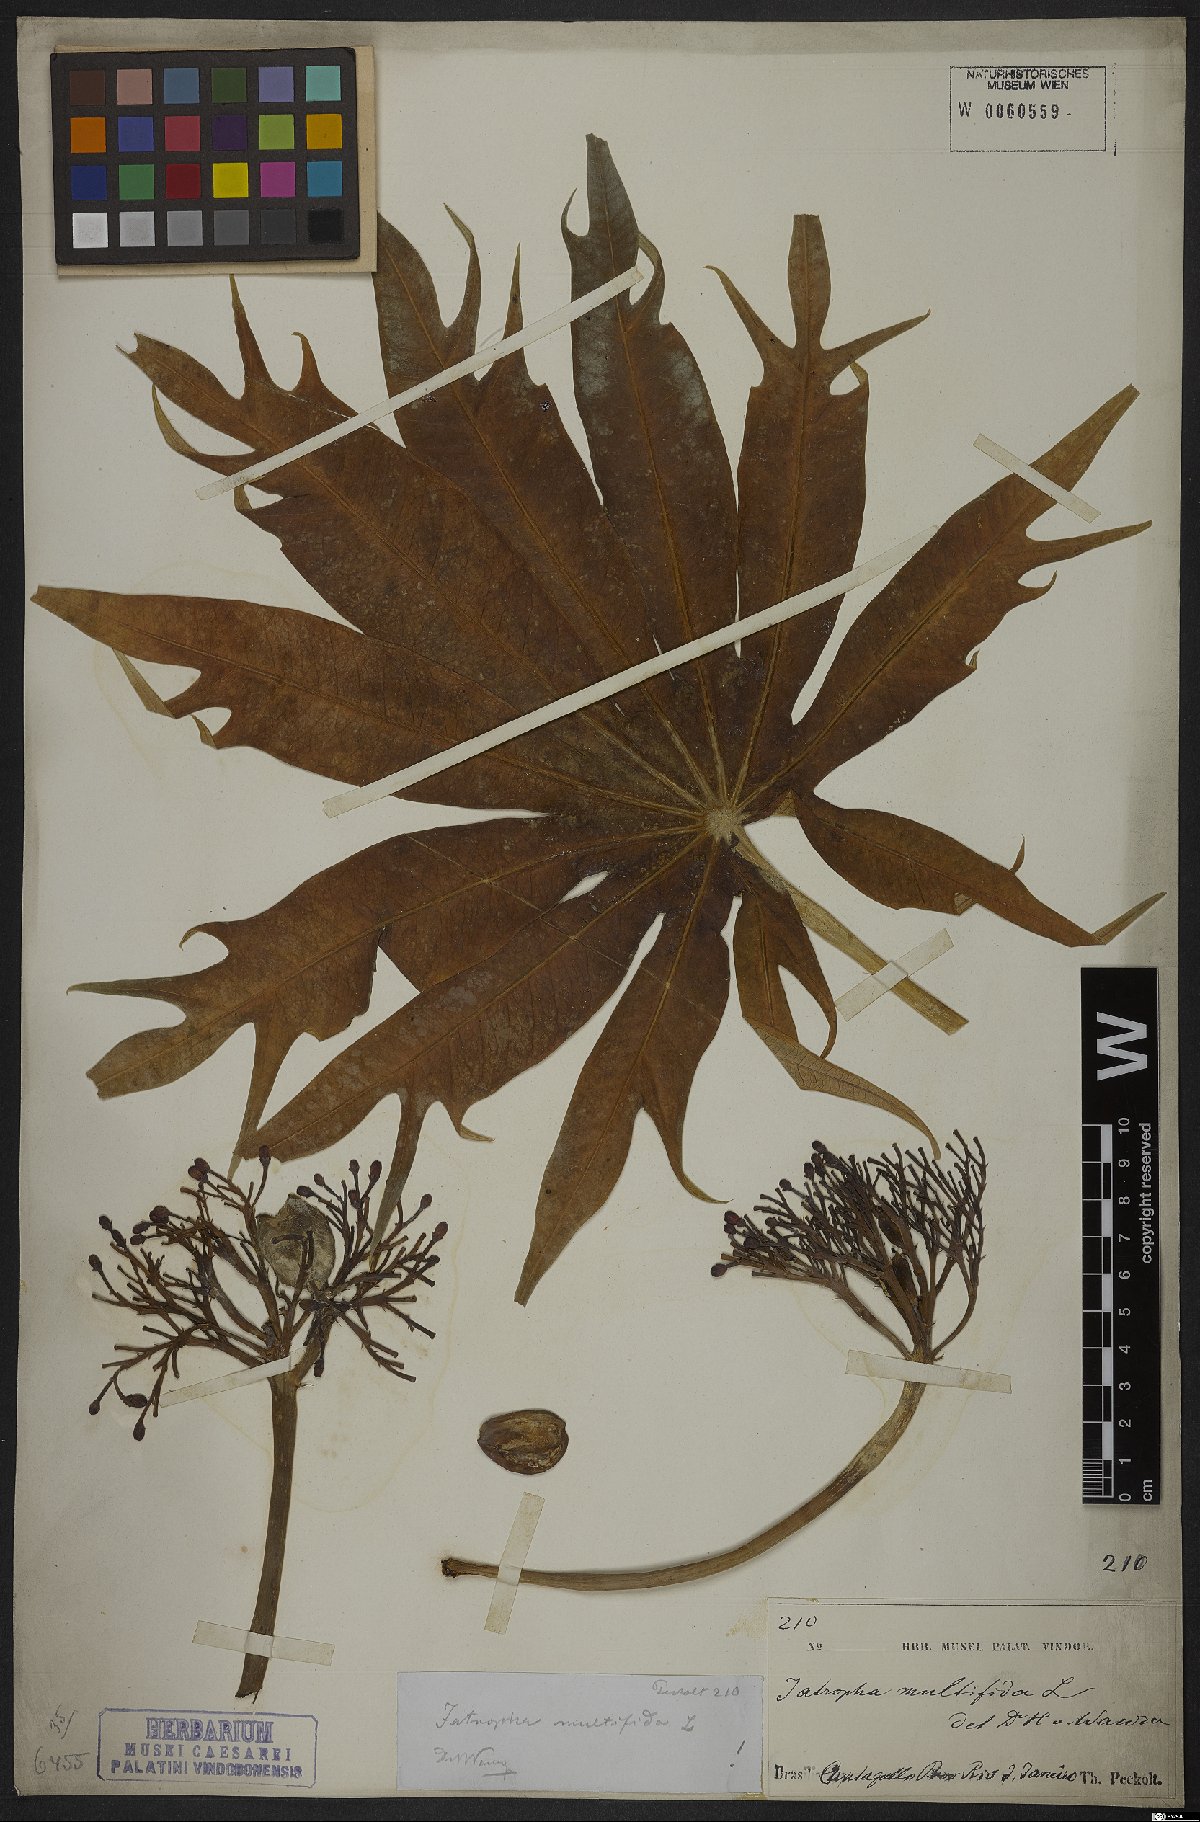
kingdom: Plantae
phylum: Tracheophyta
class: Magnoliopsida
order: Malpighiales
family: Euphorbiaceae
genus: Jatropha
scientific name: Jatropha multifida
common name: Coralbush
